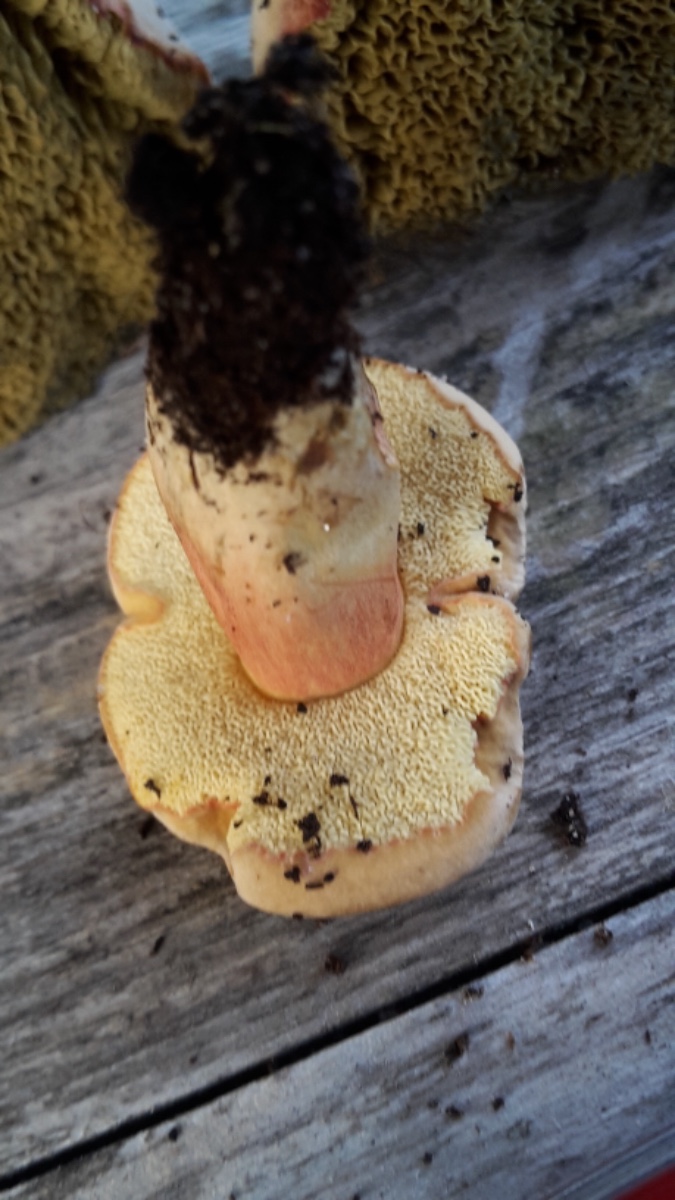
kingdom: Fungi
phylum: Basidiomycota
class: Agaricomycetes
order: Boletales
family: Boletaceae
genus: Hortiboletus
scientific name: Hortiboletus bubalinus
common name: aurora-rørhat
